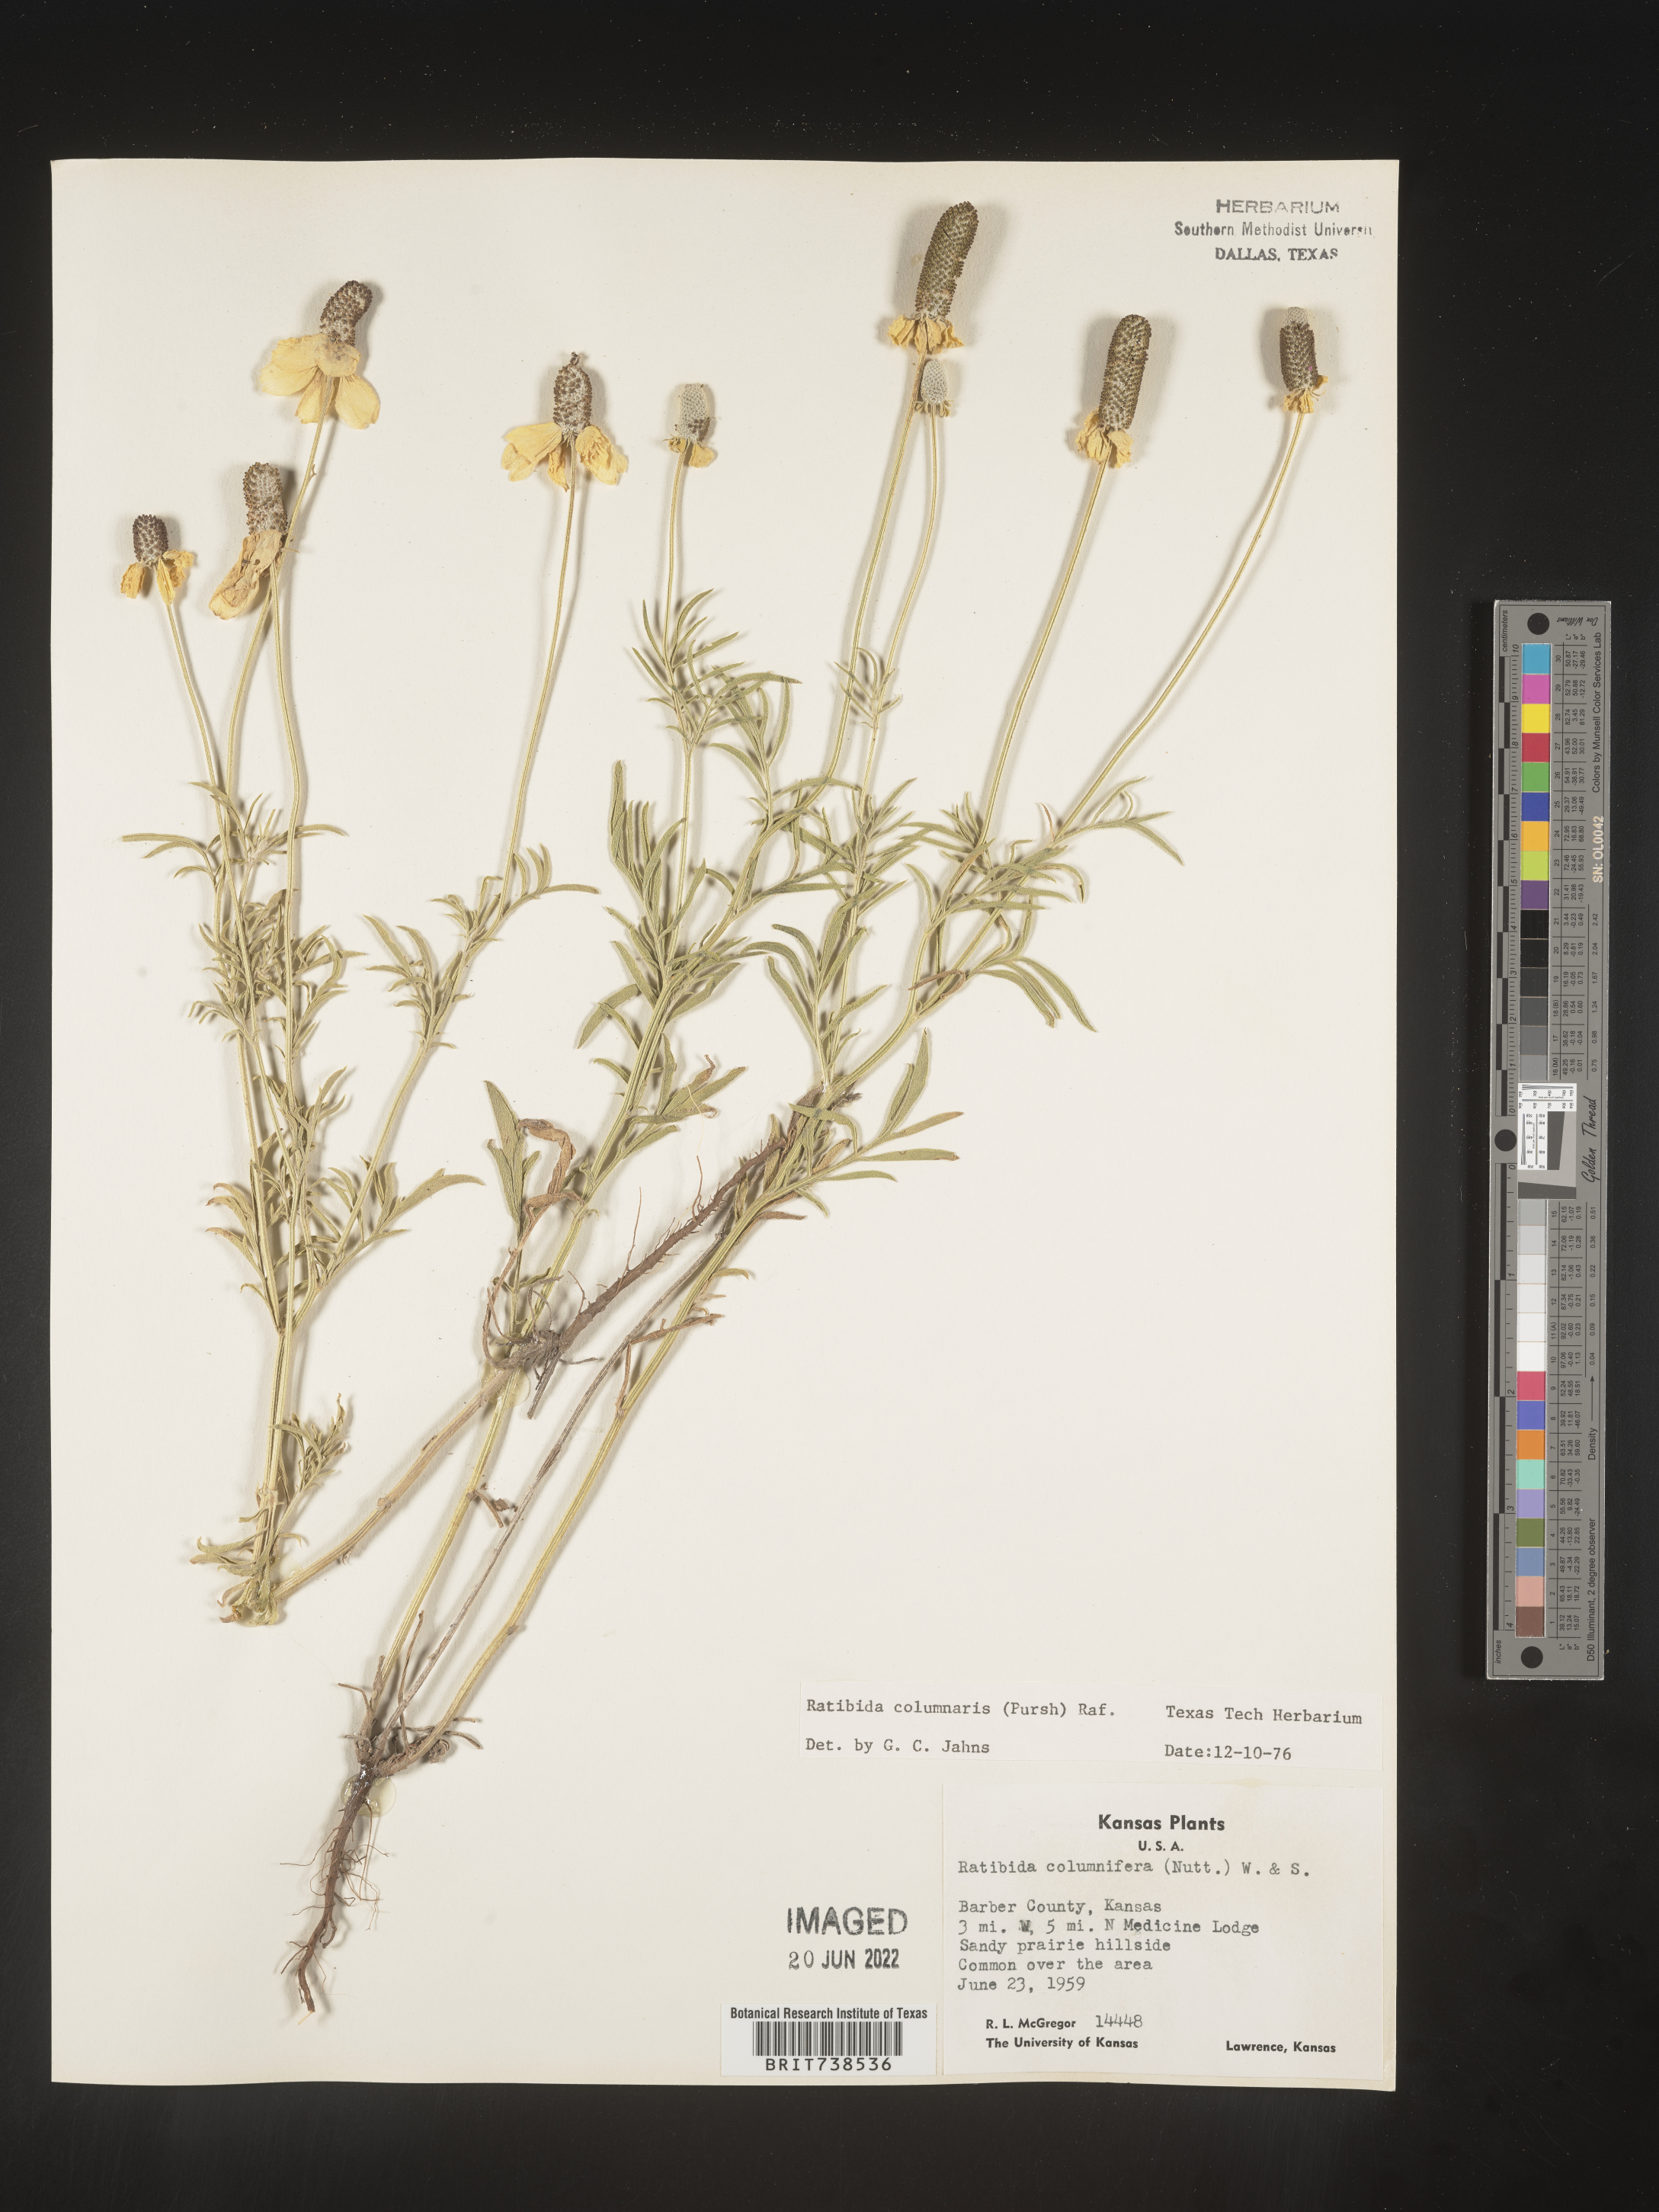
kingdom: Plantae
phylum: Tracheophyta
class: Magnoliopsida
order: Asterales
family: Asteraceae
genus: Ratibida
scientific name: Ratibida columnifera
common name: Prairie coneflower
